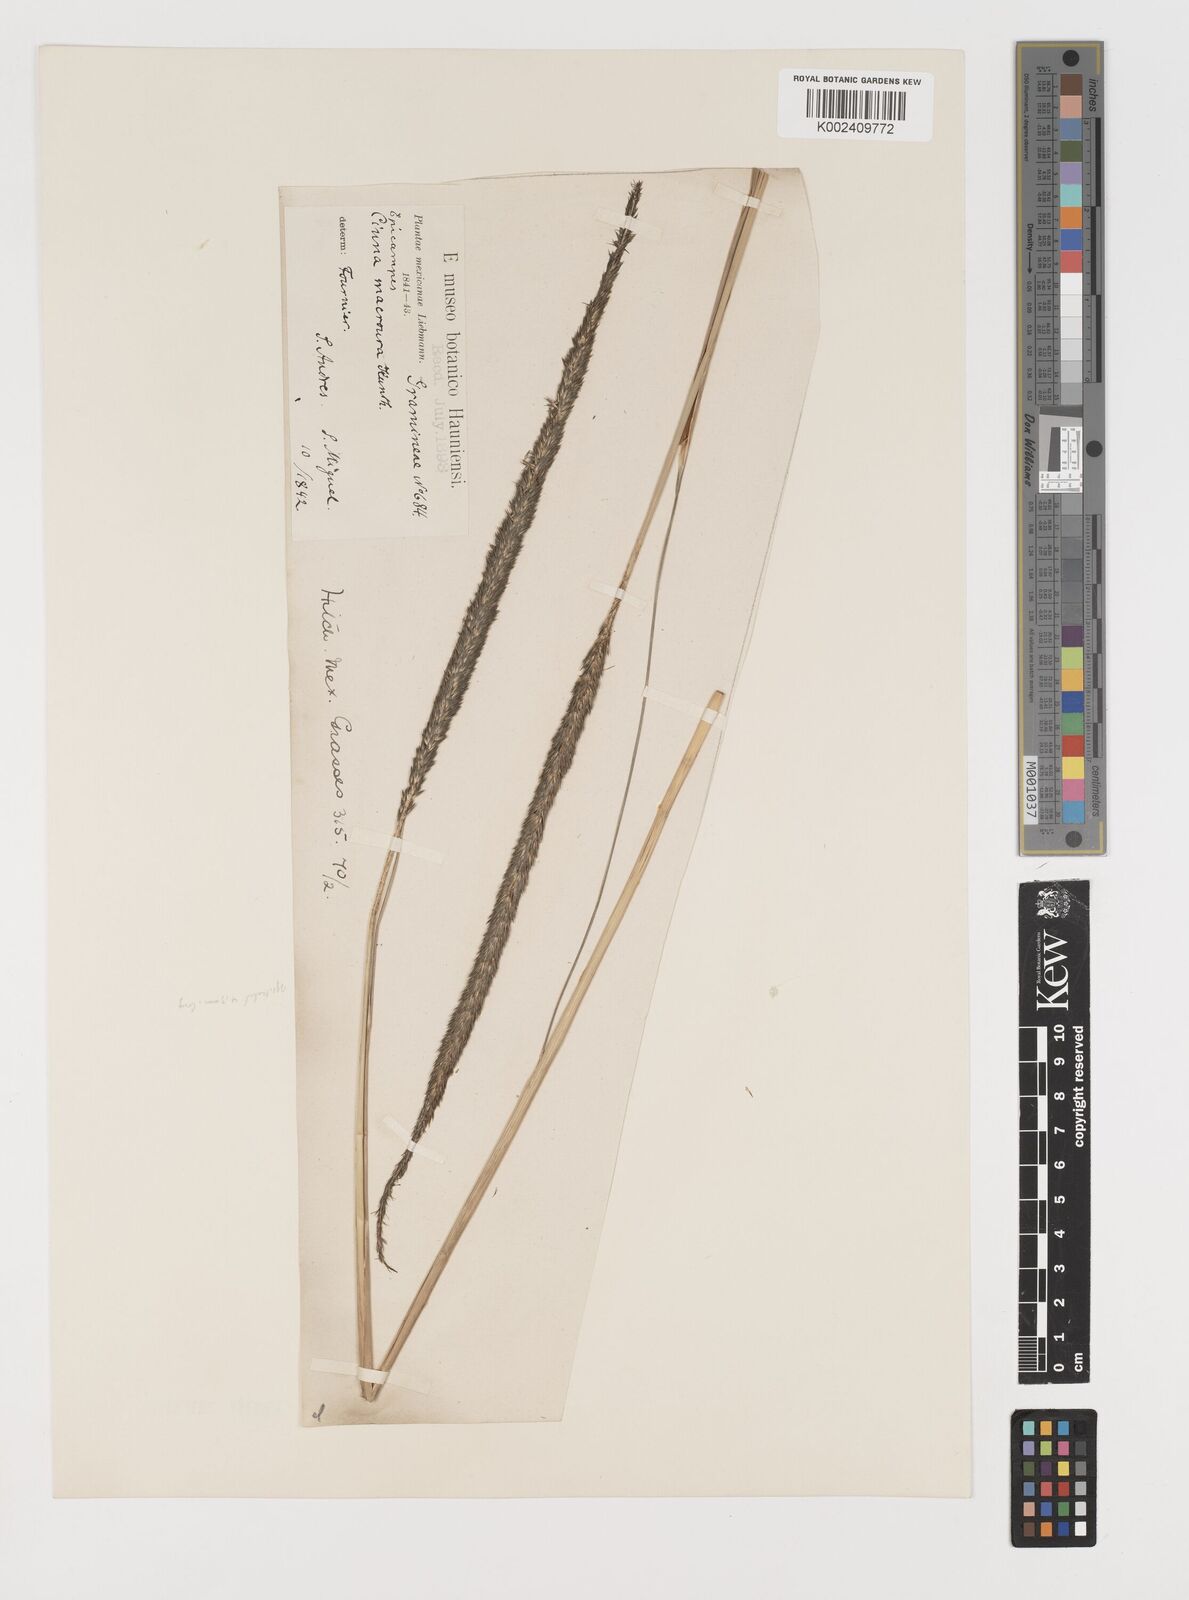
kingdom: Plantae
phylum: Tracheophyta
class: Liliopsida
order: Poales
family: Poaceae
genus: Muhlenbergia
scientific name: Muhlenbergia macroura
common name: Mexican broomroot
